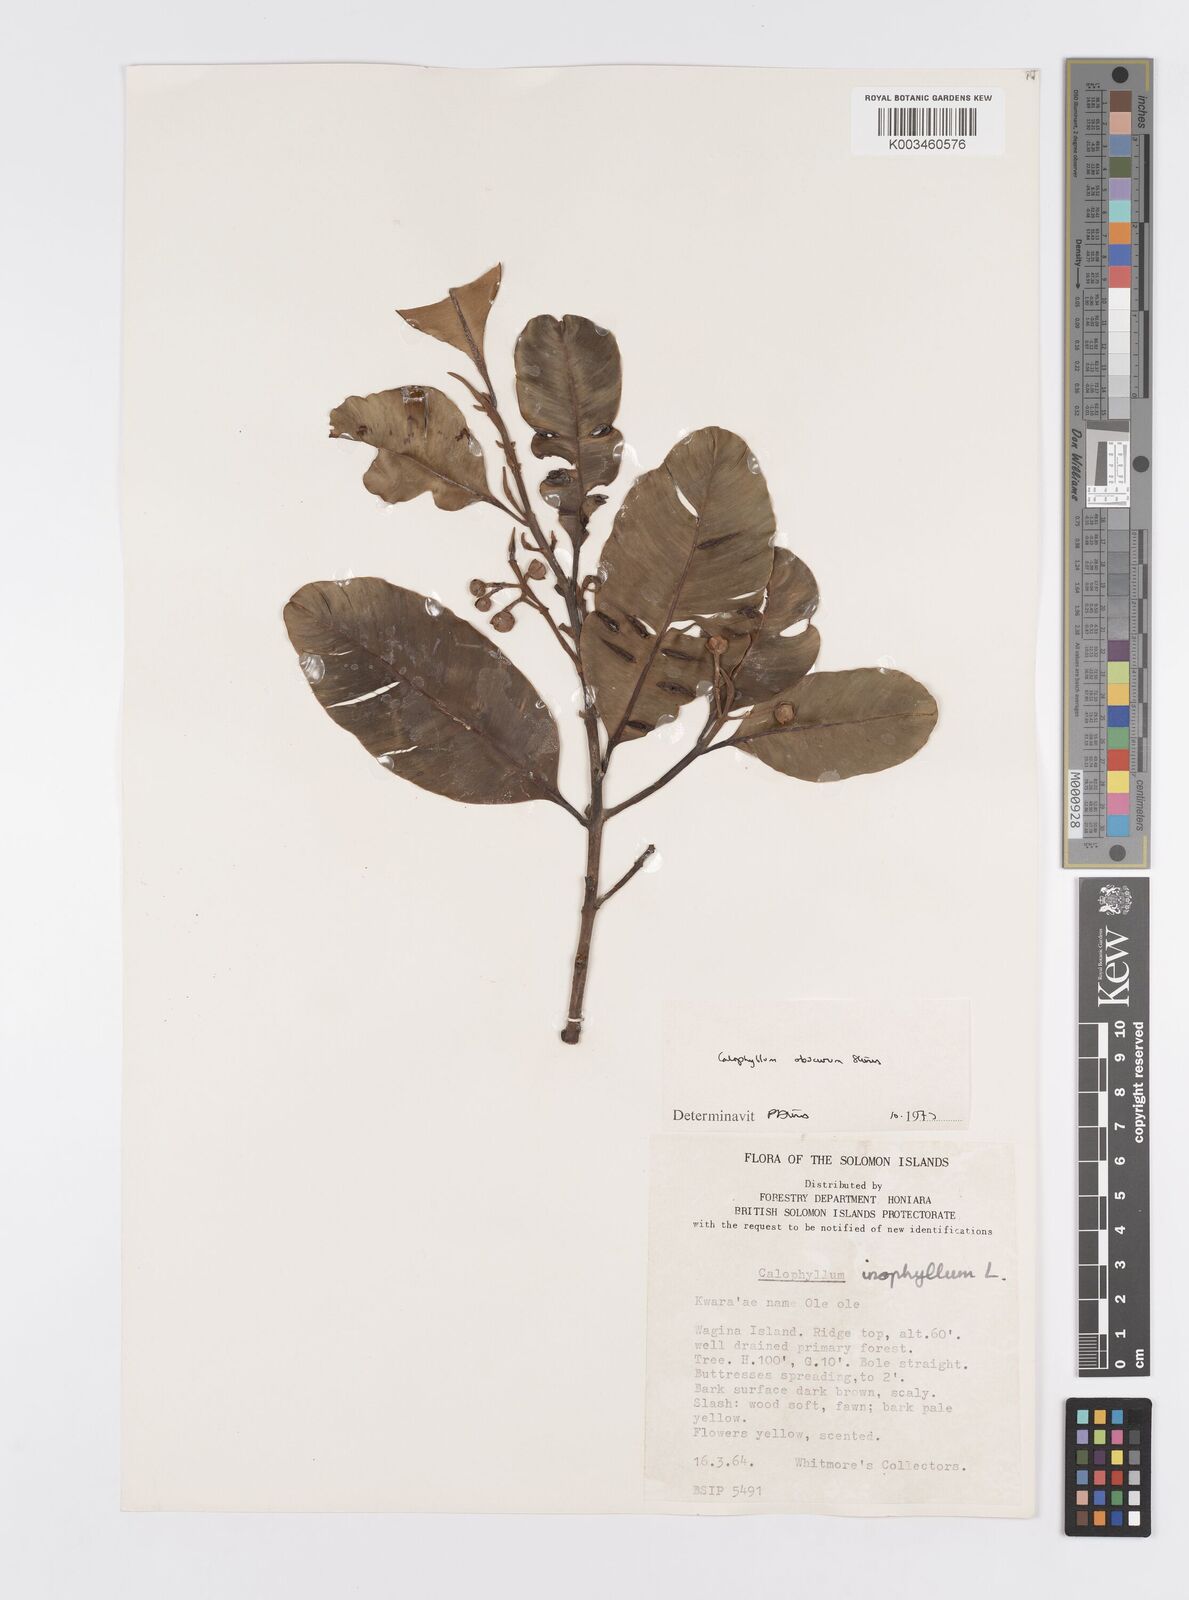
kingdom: Plantae
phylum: Tracheophyta
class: Magnoliopsida
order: Malpighiales
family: Calophyllaceae
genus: Calophyllum
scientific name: Calophyllum obscurum
